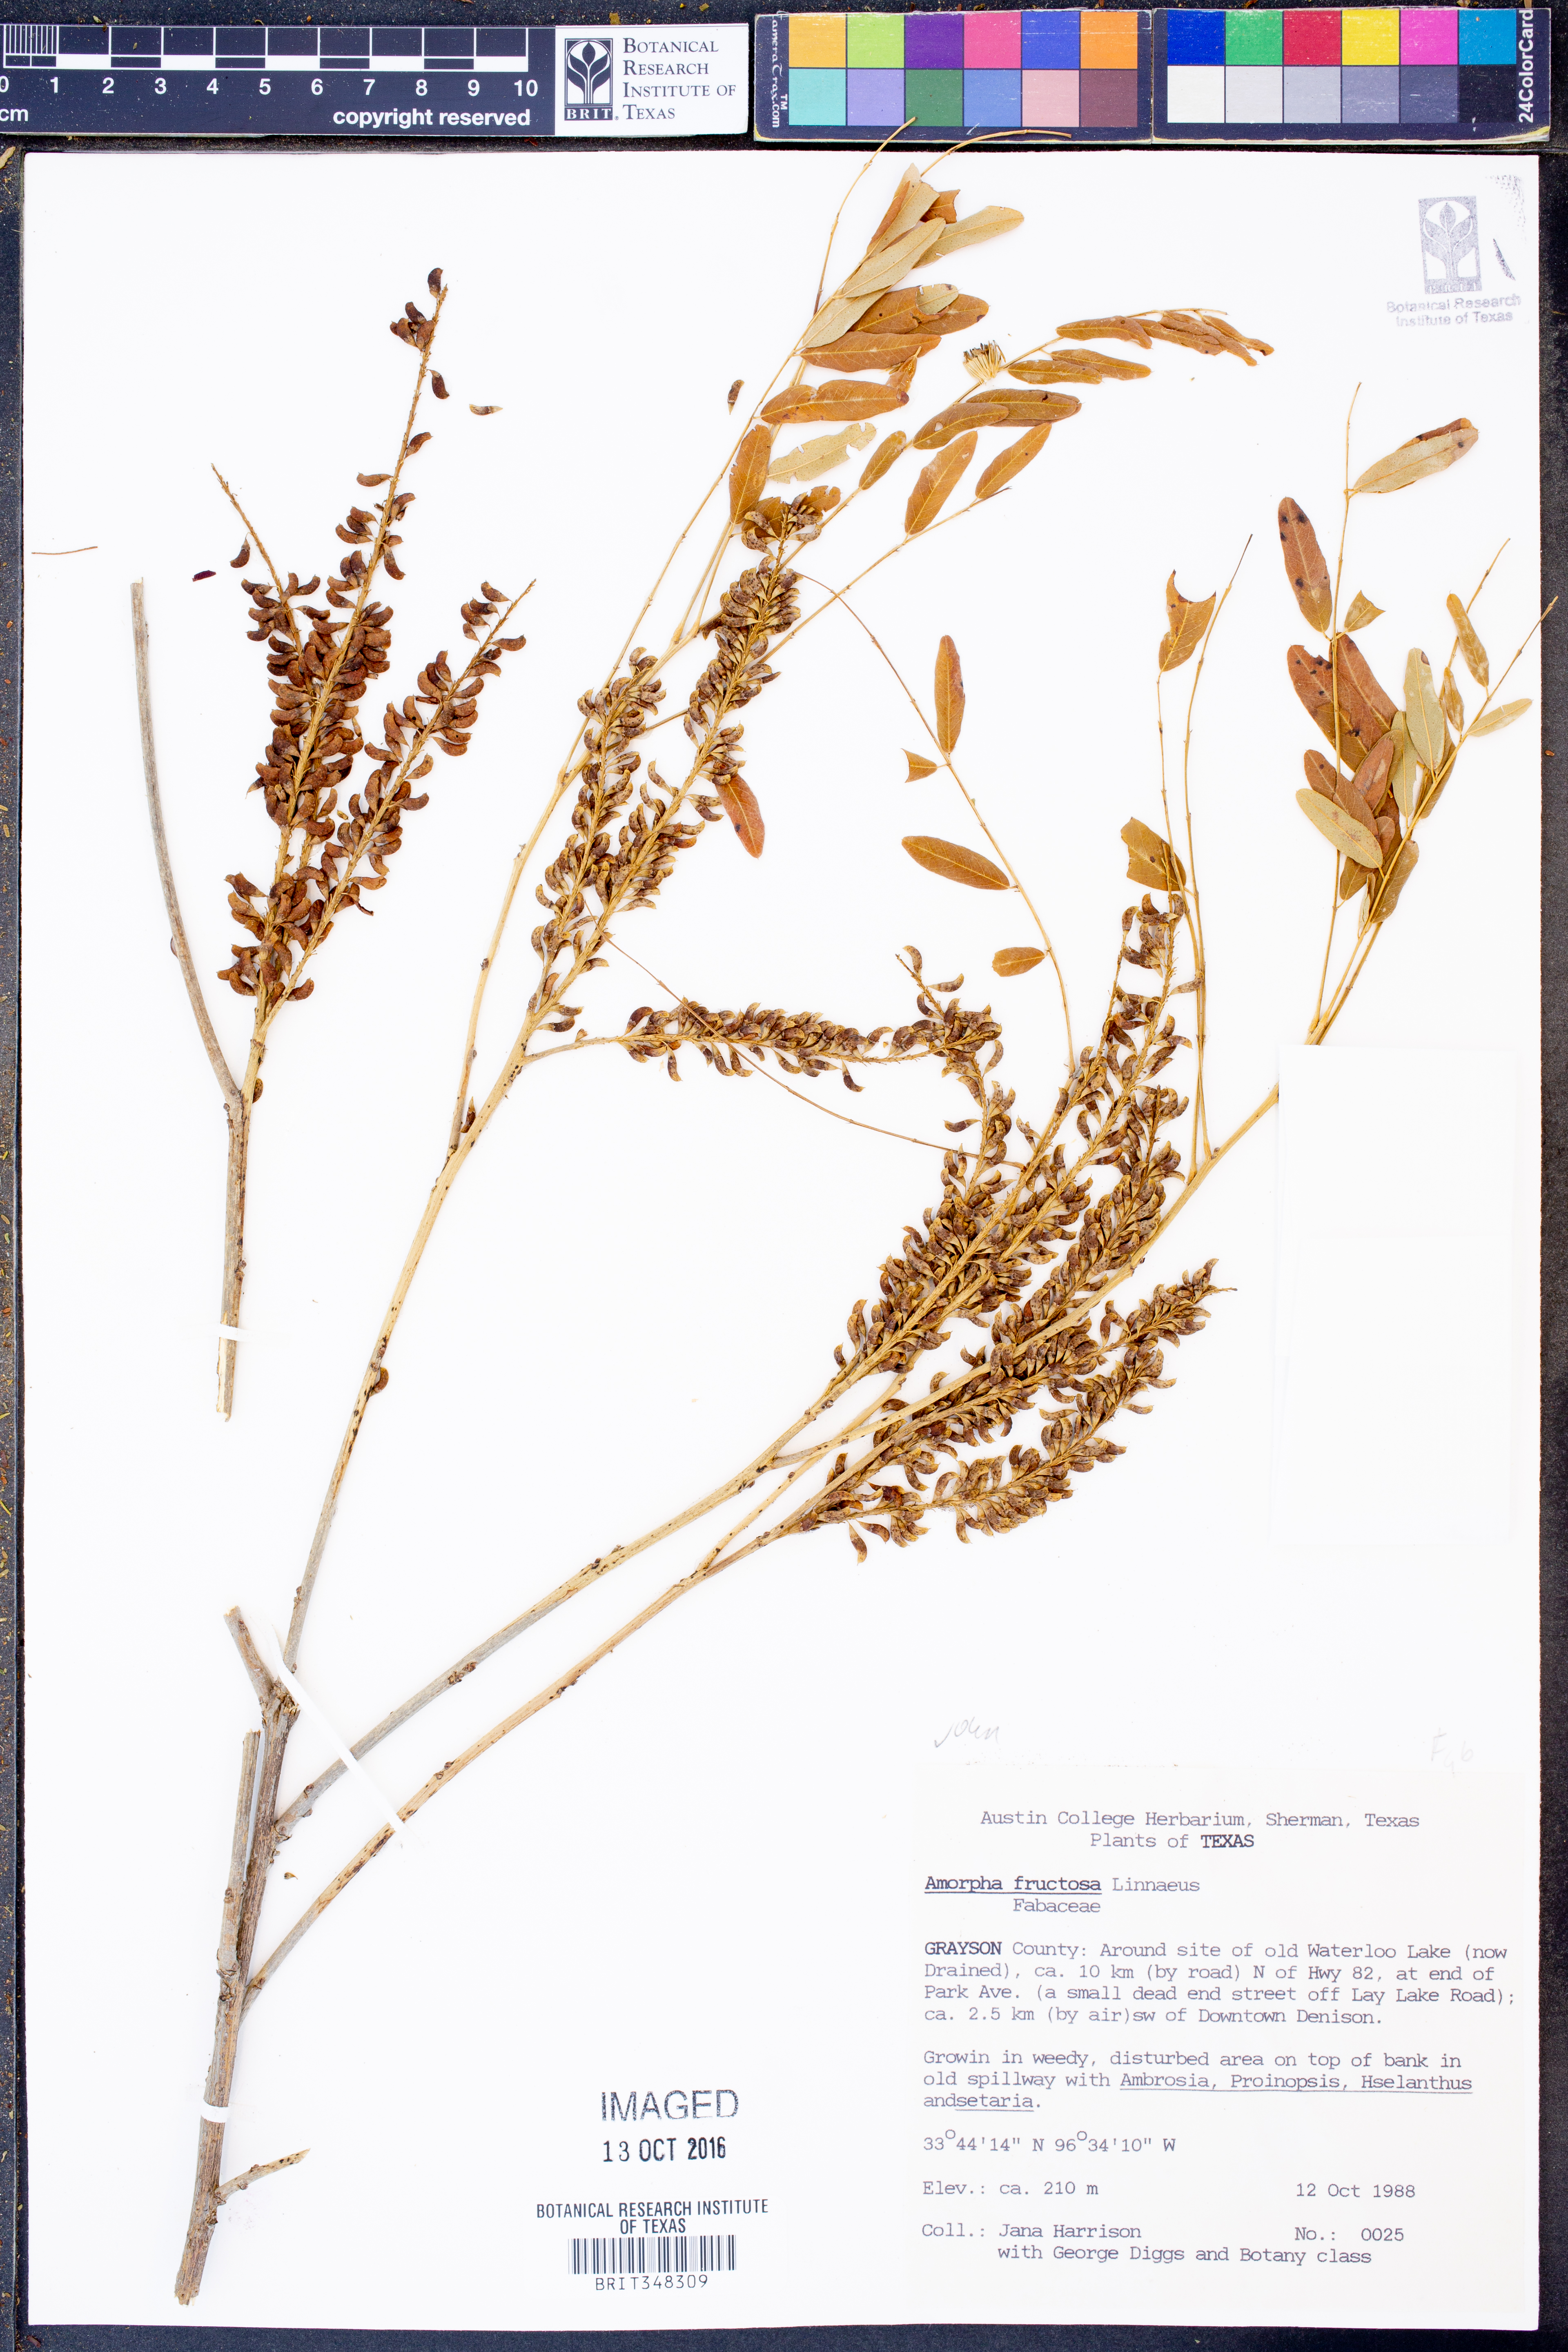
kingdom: Plantae
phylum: Tracheophyta
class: Magnoliopsida
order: Fabales
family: Fabaceae
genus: Amorpha
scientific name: Amorpha fruticosa
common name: False indigo
